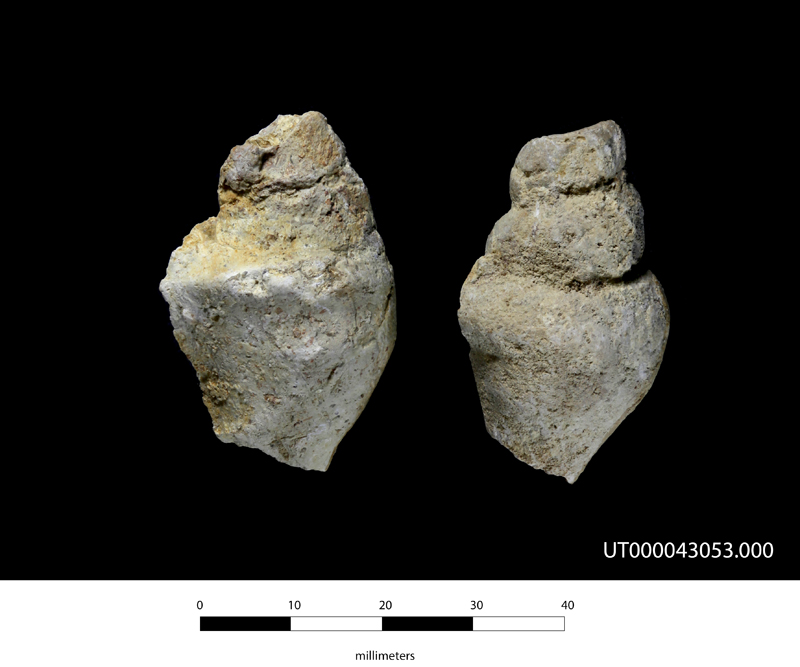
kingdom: Animalia
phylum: Arthropoda
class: Chilopoda
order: Scolopendromorpha
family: Scolopendridae
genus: Alipes
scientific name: Alipes
